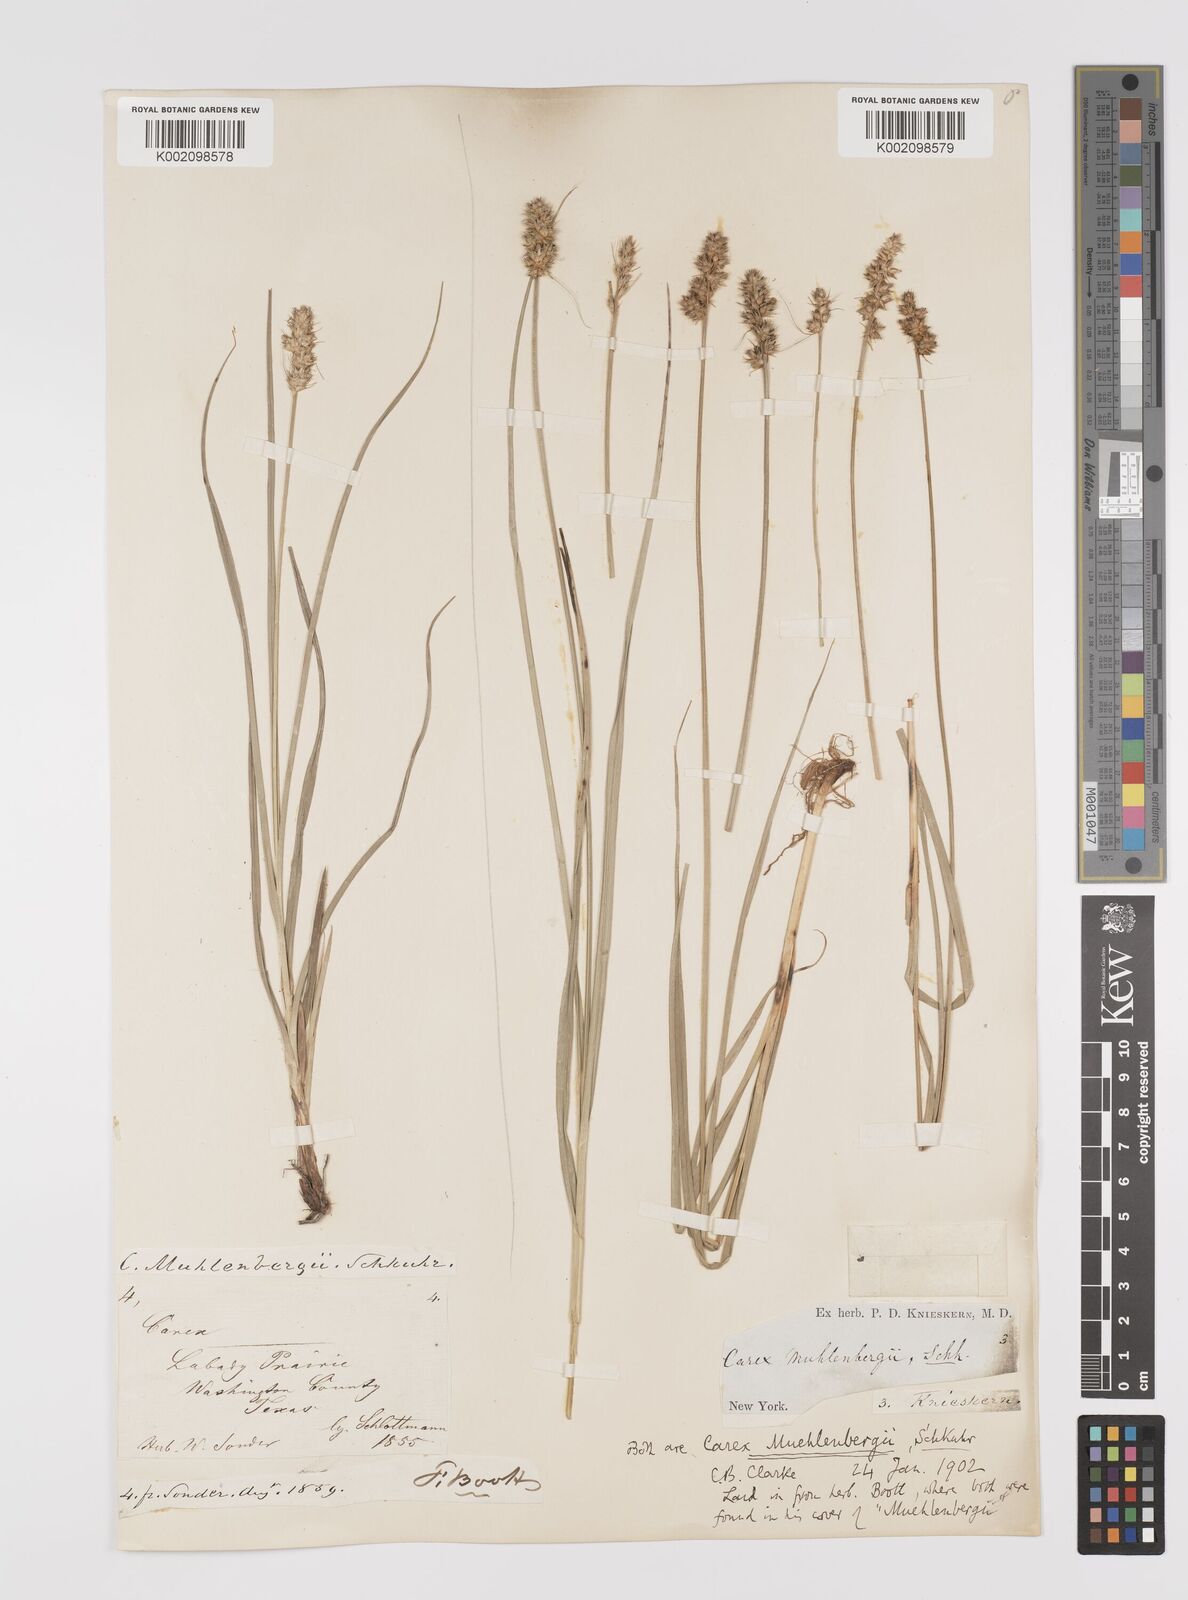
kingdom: Plantae
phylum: Tracheophyta
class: Liliopsida
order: Poales
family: Cyperaceae
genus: Carex
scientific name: Carex vulpinoidea
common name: American fox-sedge
